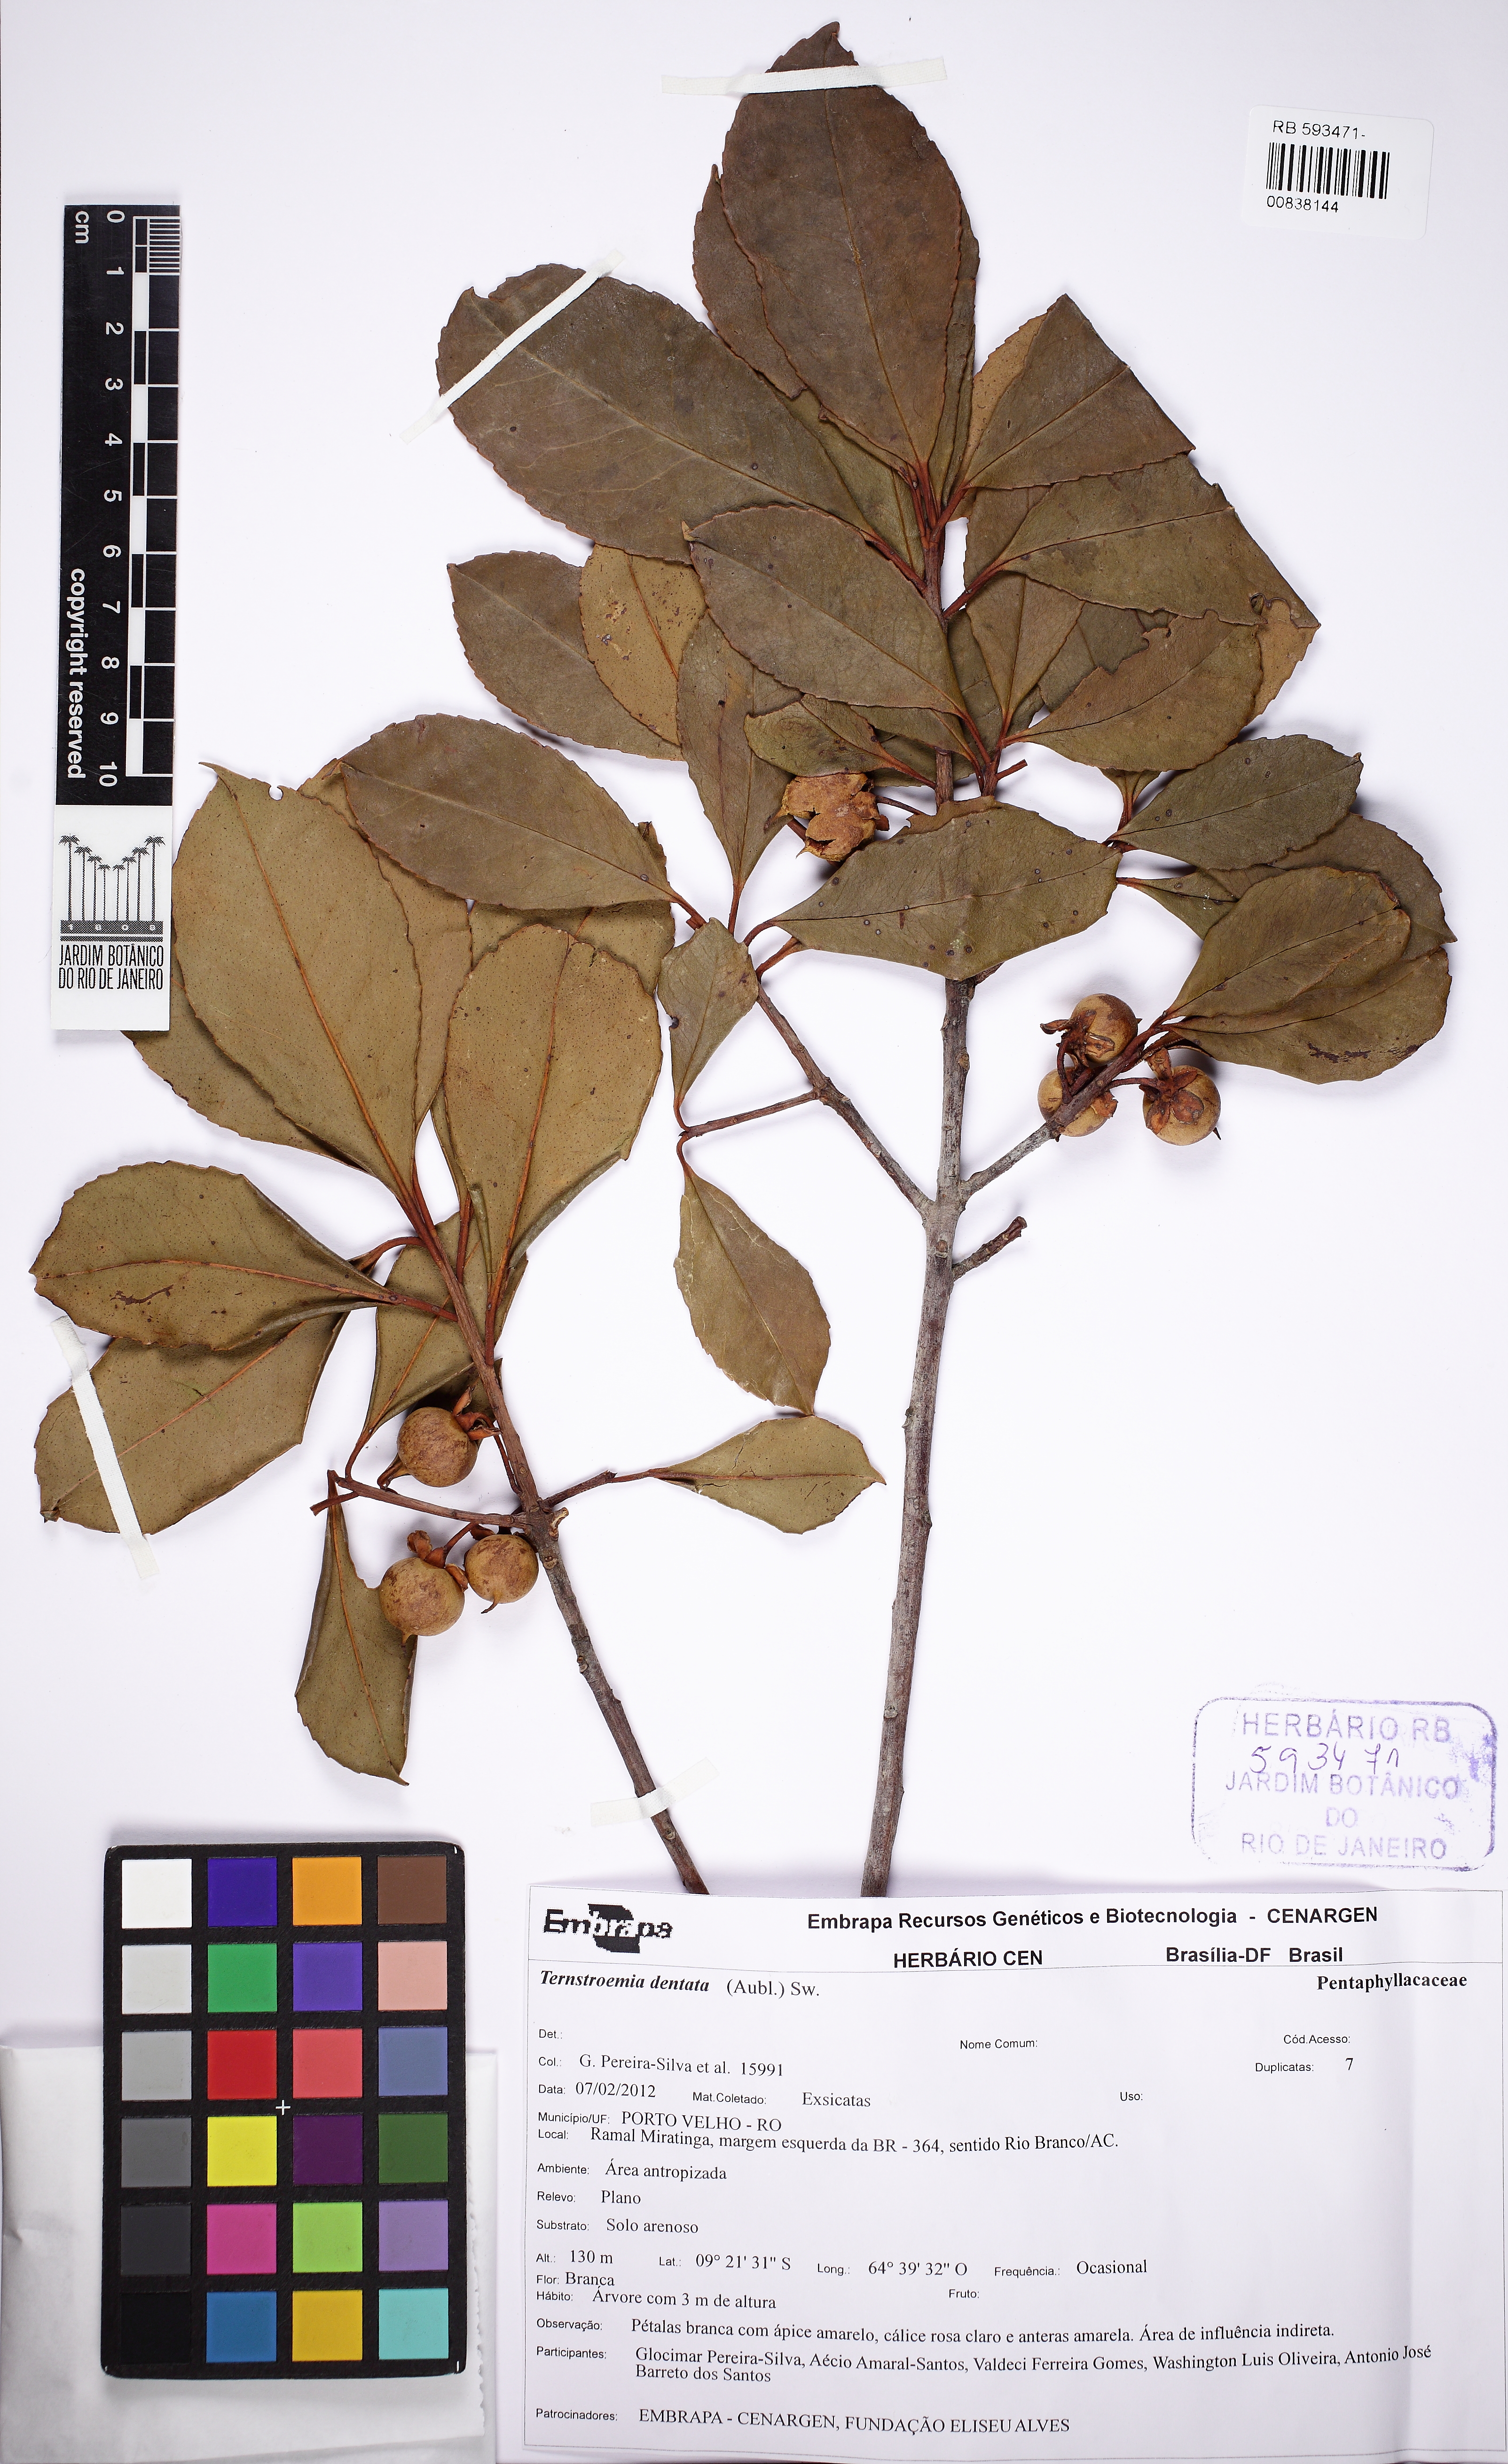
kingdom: Plantae
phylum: Tracheophyta
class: Magnoliopsida
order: Ericales
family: Pentaphylacaceae
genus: Ternstroemia
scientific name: Ternstroemia dentata
